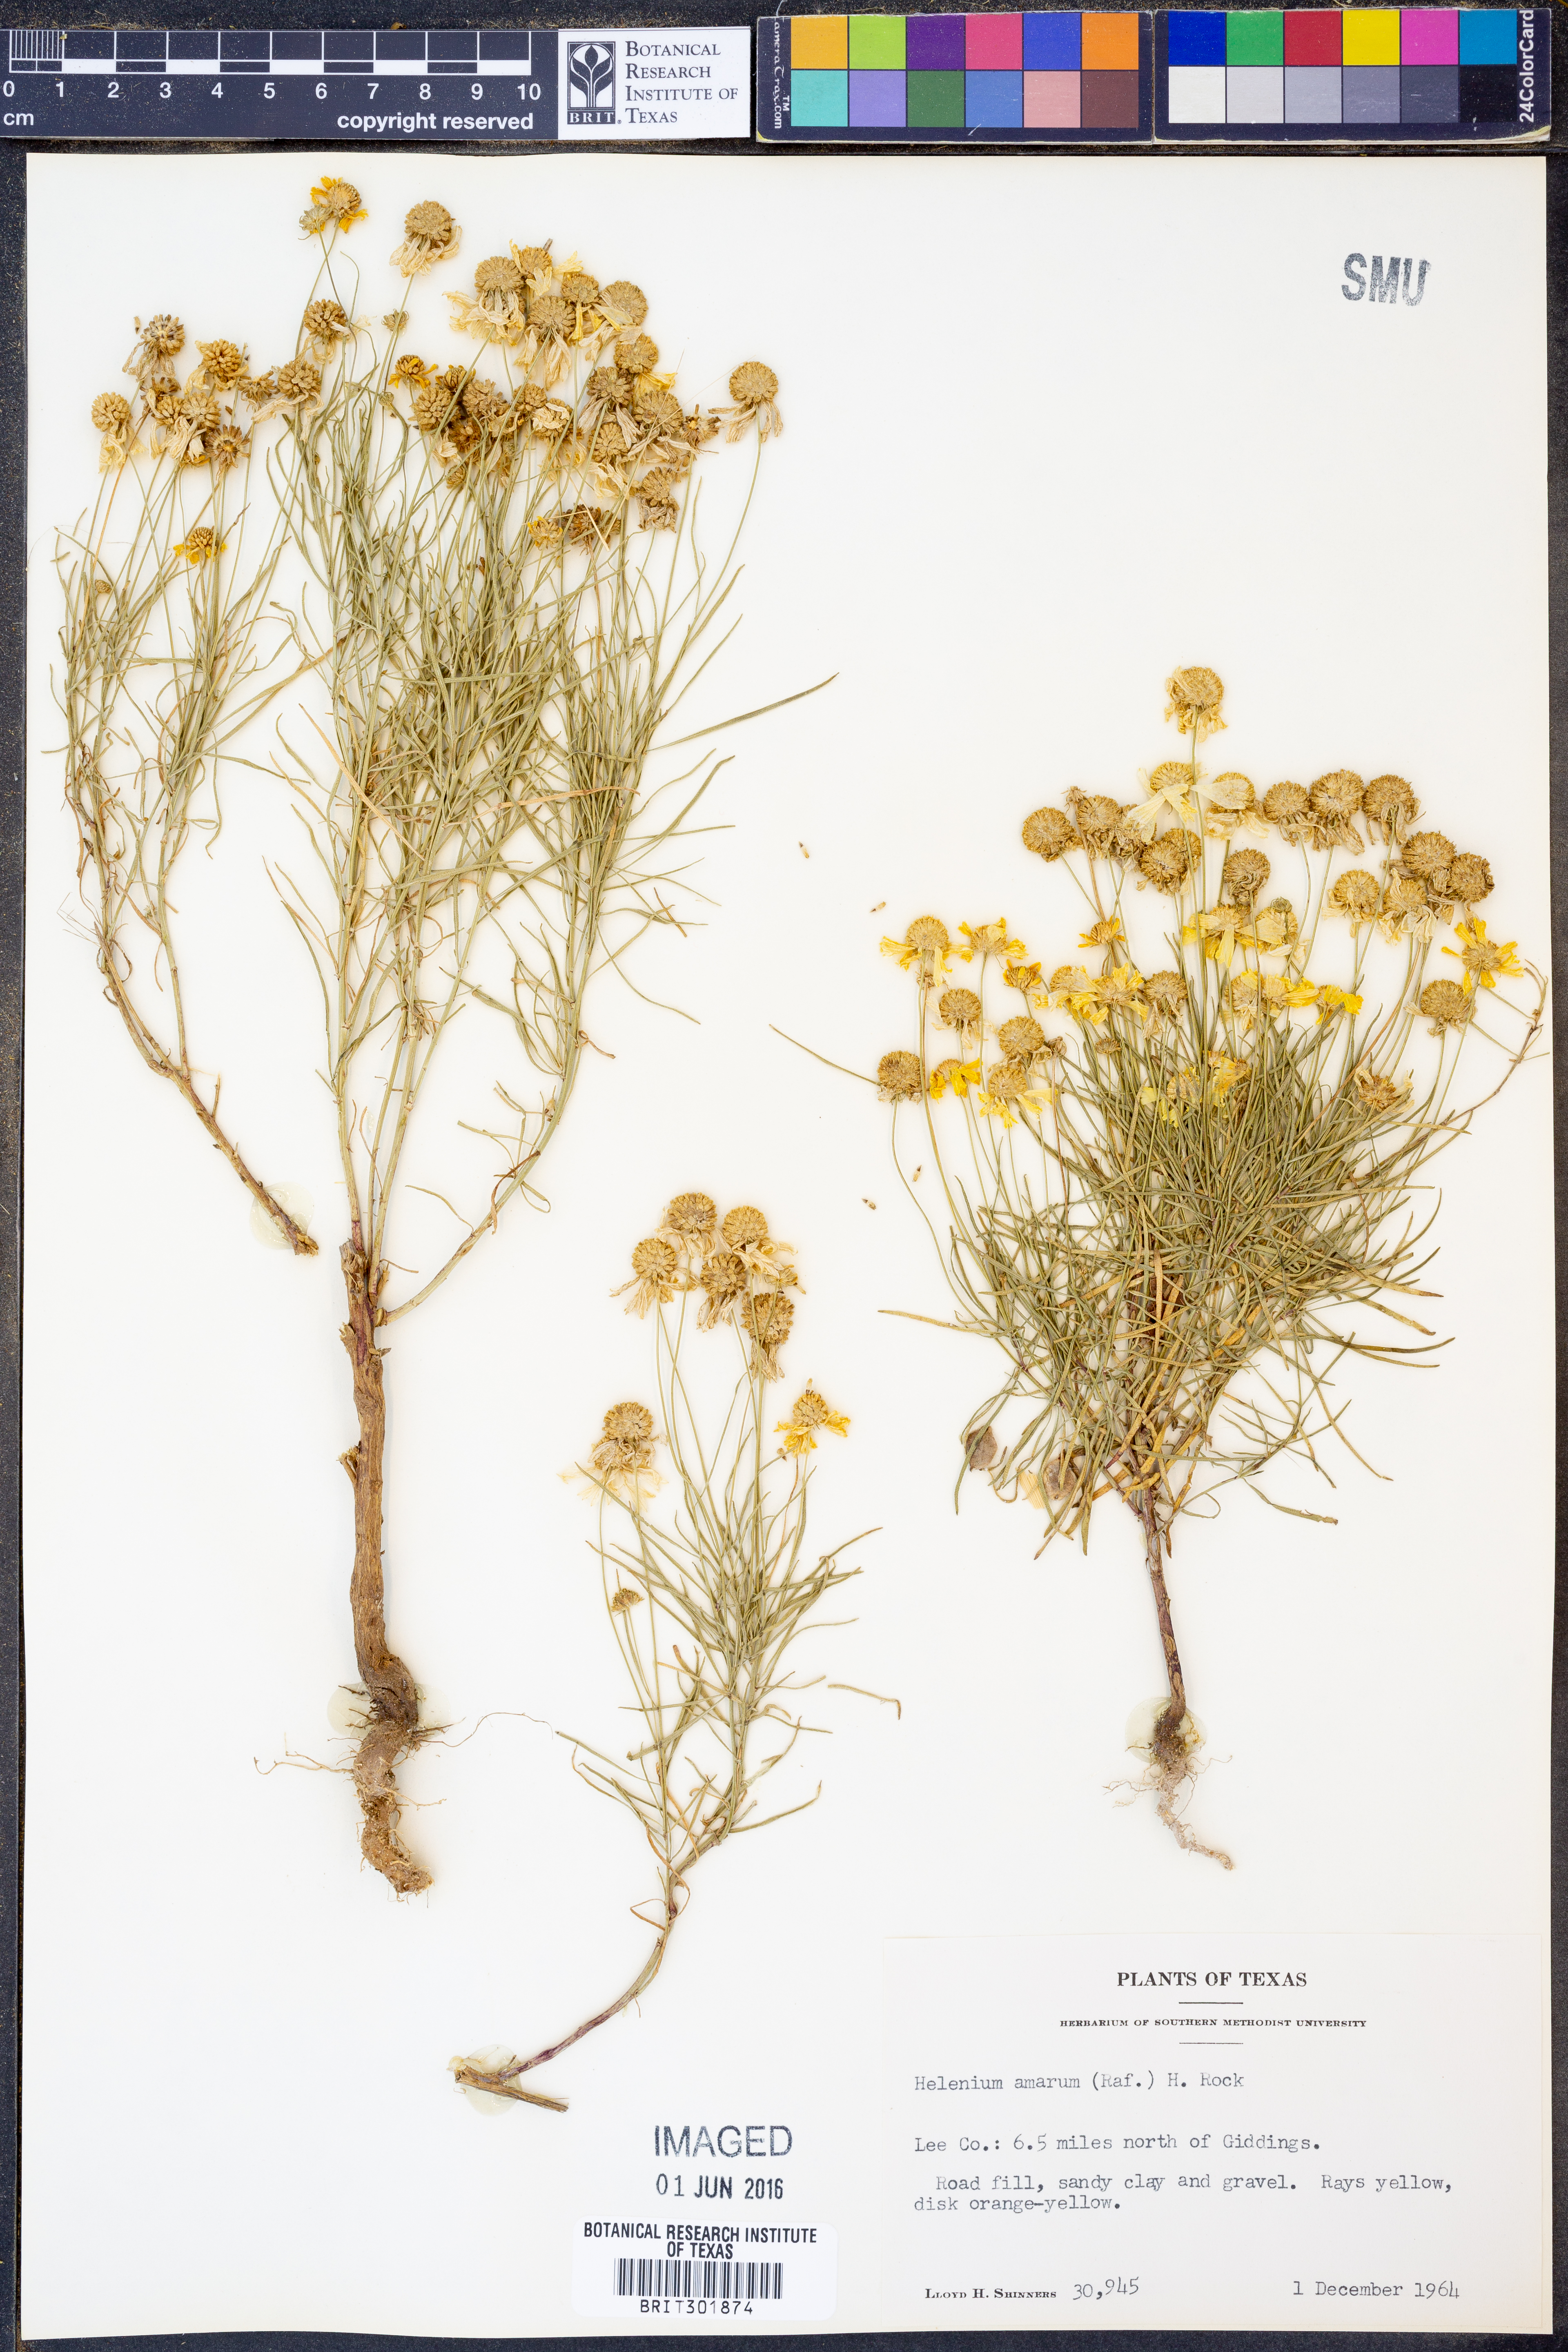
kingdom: Plantae
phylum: Tracheophyta
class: Magnoliopsida
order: Asterales
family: Asteraceae
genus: Helenium
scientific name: Helenium amarum
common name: Bitter sneezeweed
